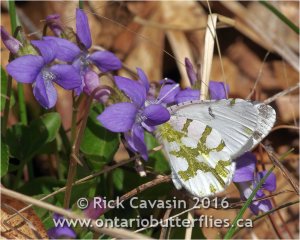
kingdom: Animalia
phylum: Arthropoda
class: Insecta
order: Lepidoptera
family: Pieridae
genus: Euchloe
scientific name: Euchloe olympia
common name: Olympia Marble
